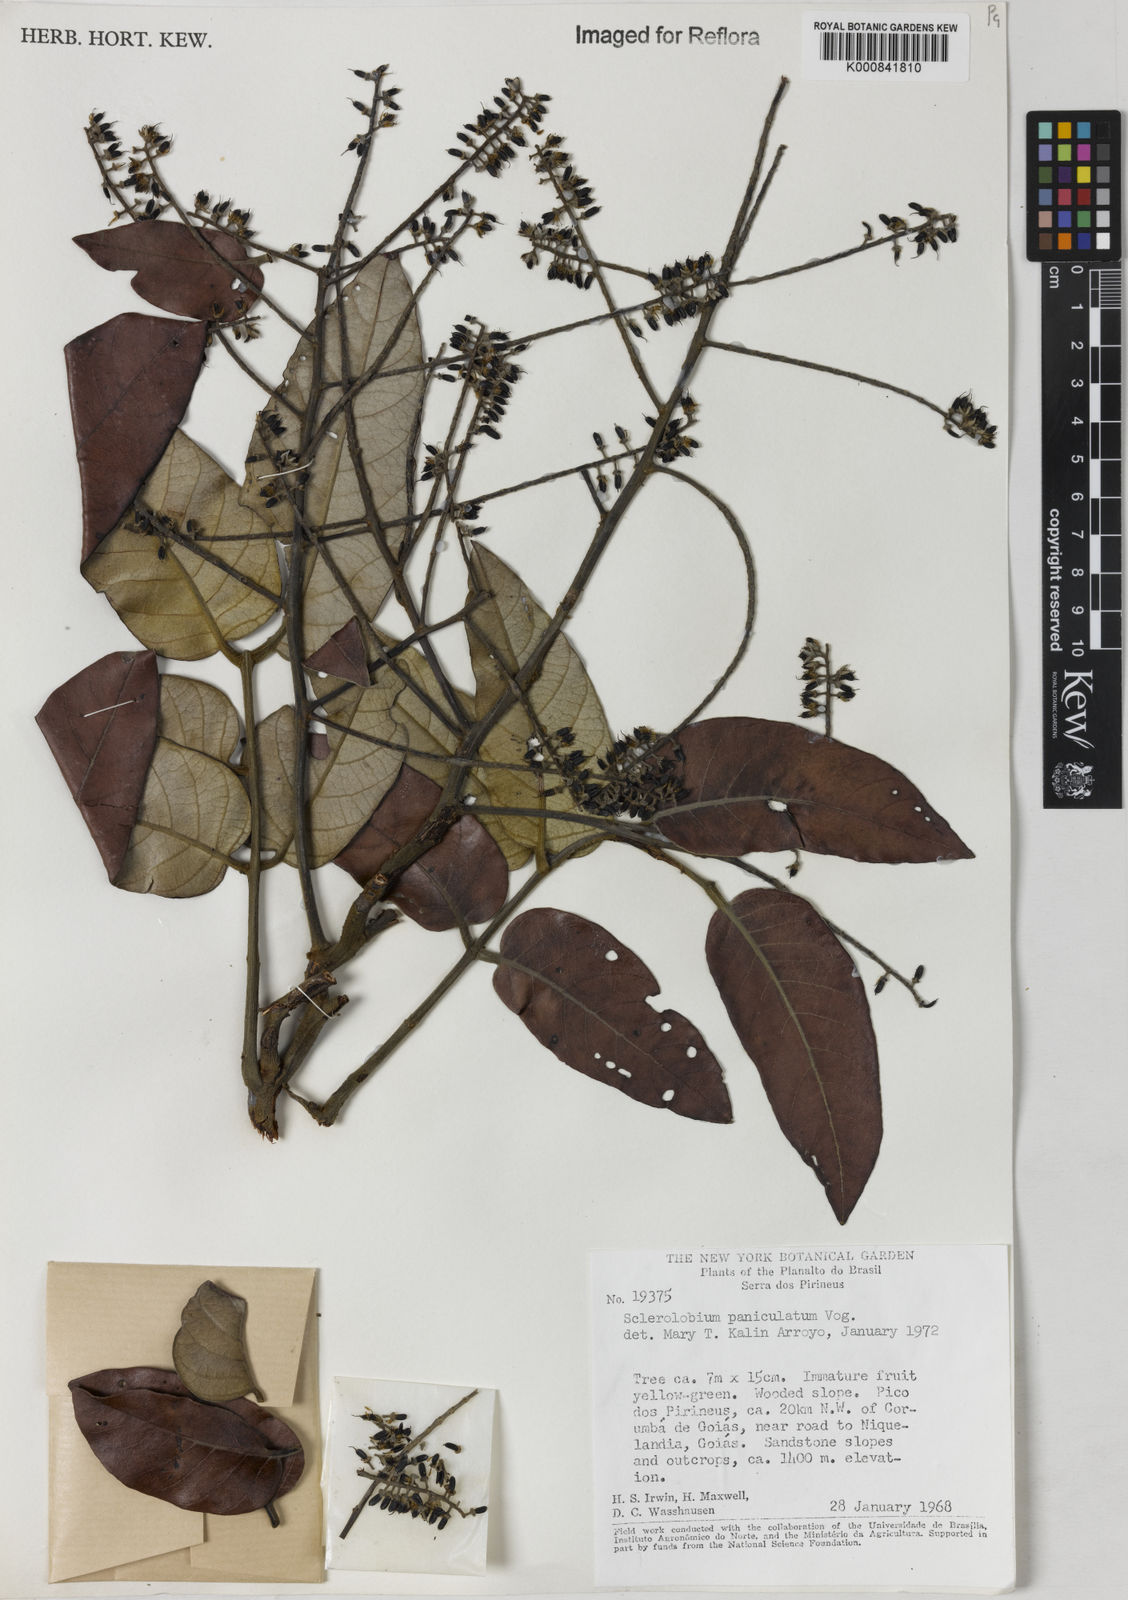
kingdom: Plantae
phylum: Tracheophyta
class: Magnoliopsida
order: Fabales
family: Fabaceae
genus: Tachigali
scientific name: Tachigali subvelutina
